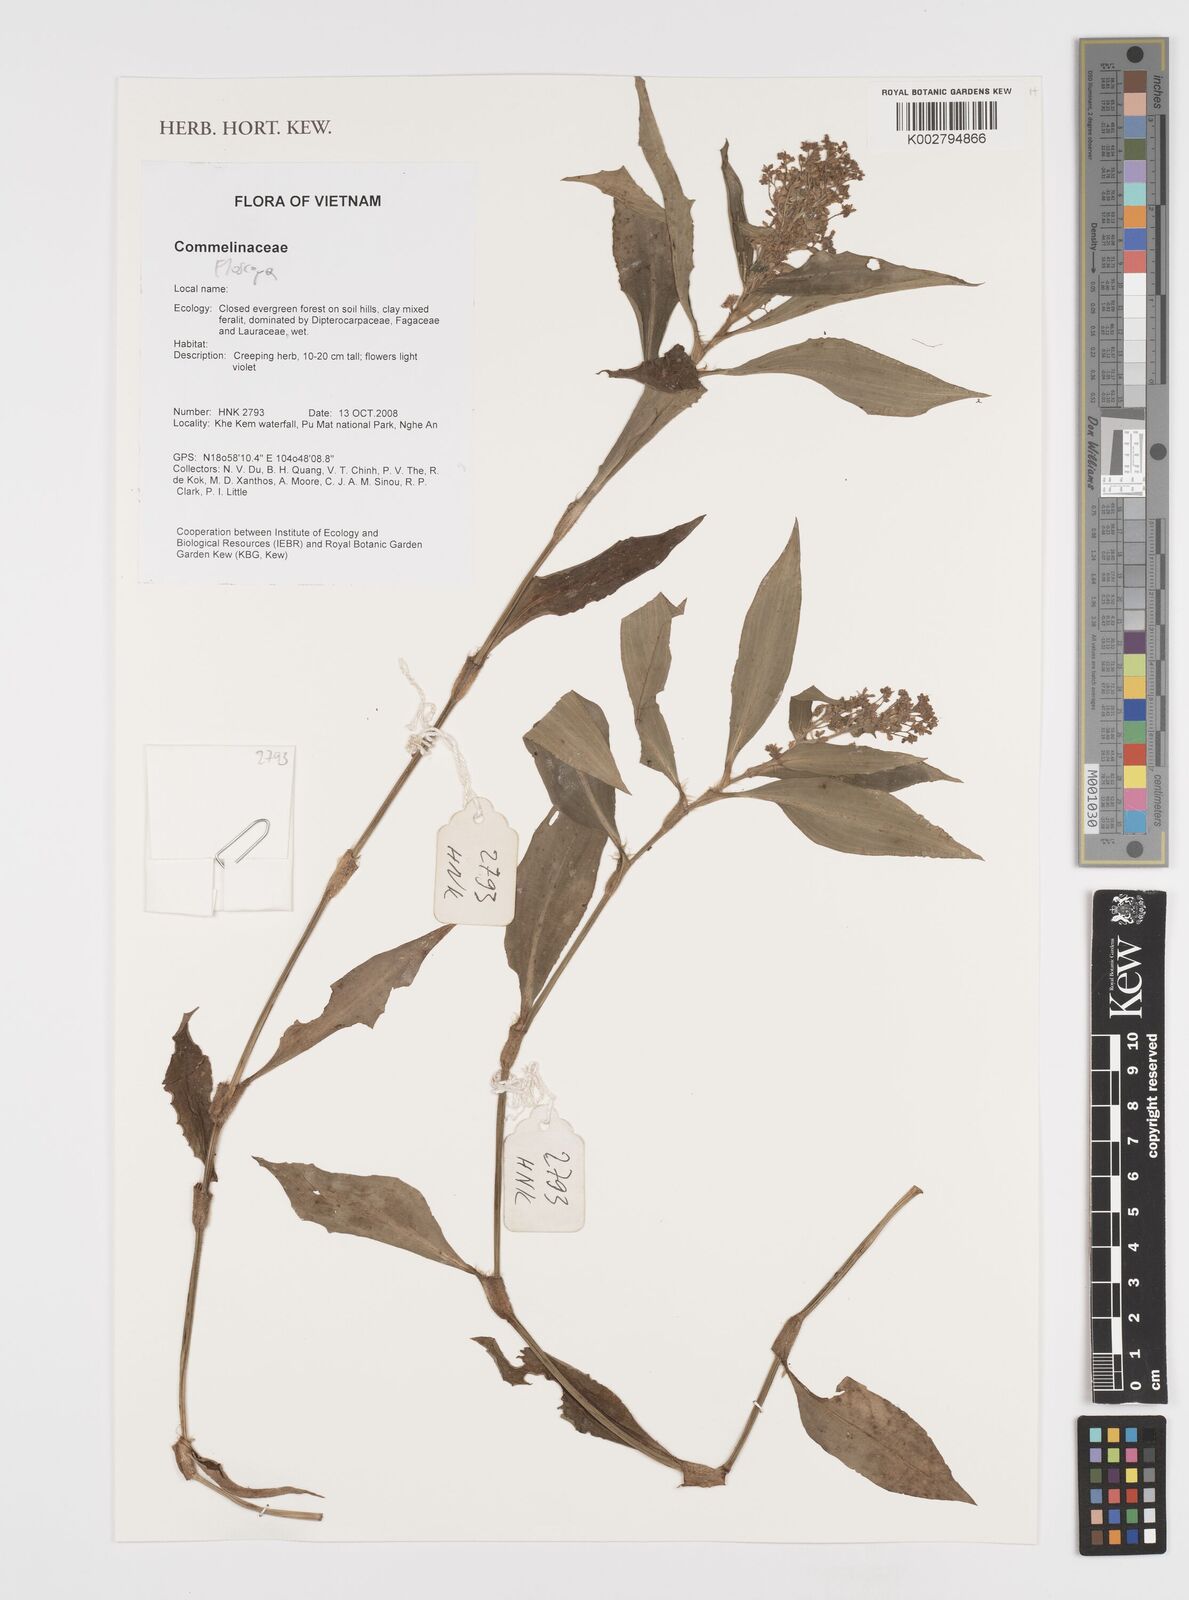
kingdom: Plantae
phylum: Tracheophyta
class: Liliopsida
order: Commelinales
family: Commelinaceae
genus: Floscopa
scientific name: Floscopa
